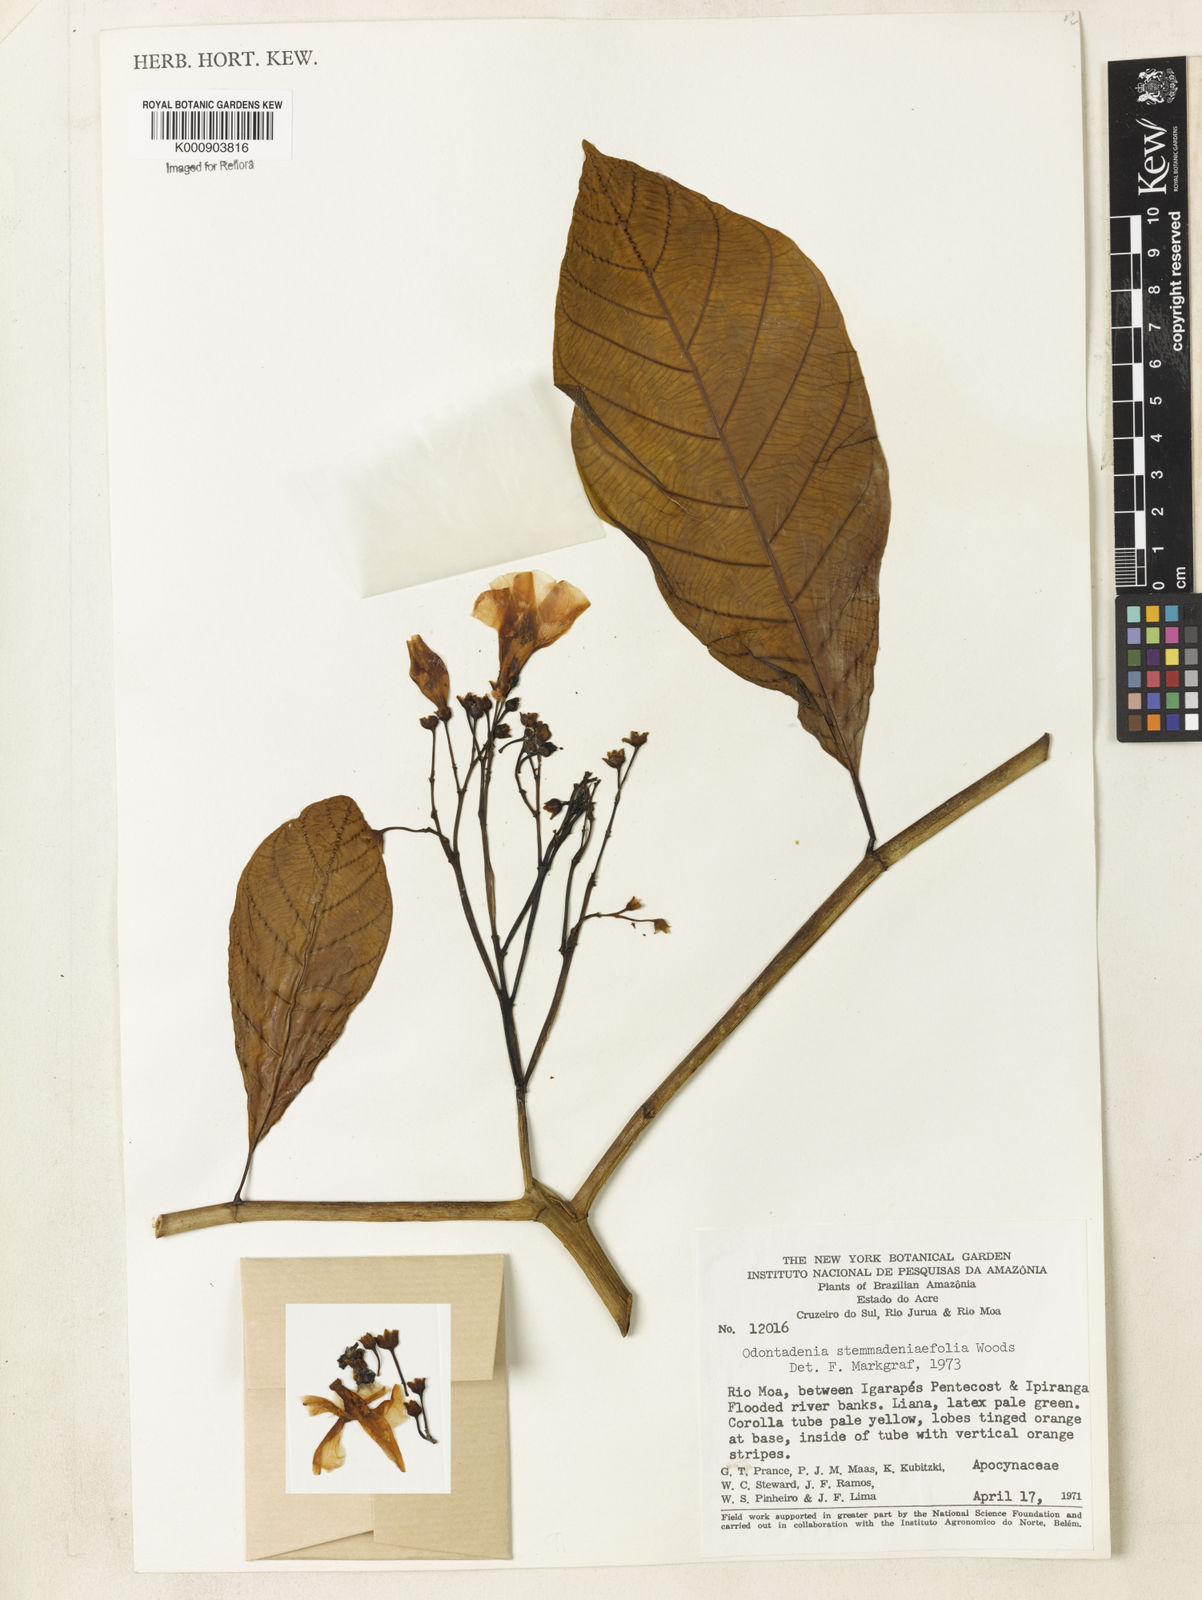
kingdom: Plantae
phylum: Tracheophyta
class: Magnoliopsida
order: Gentianales
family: Apocynaceae
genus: Odontadenia
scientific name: Odontadenia stemmadeniifolia
